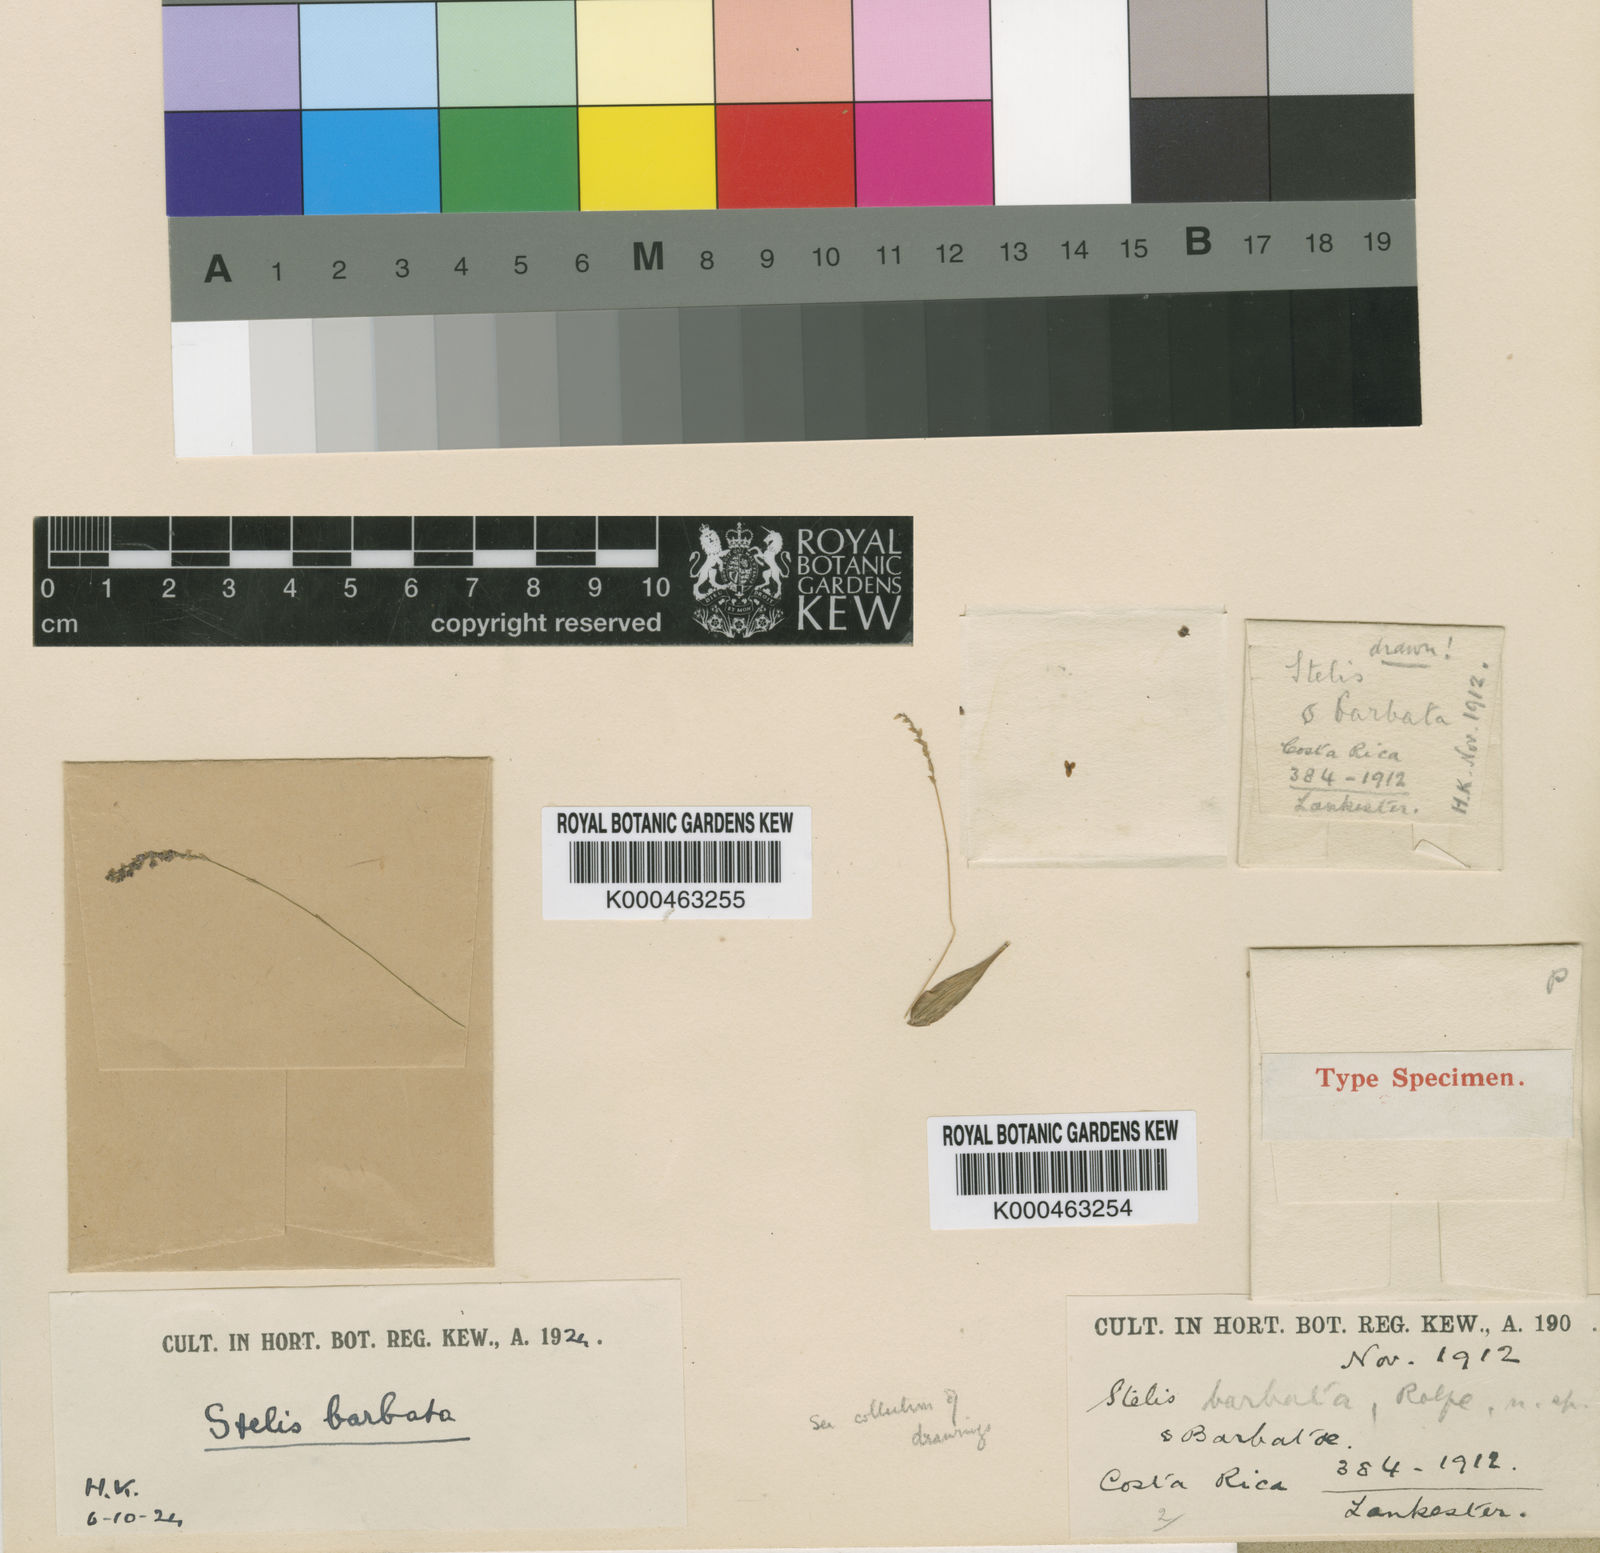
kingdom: Plantae
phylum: Tracheophyta
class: Liliopsida
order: Asparagales
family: Orchidaceae
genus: Stelis
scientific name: Stelis
